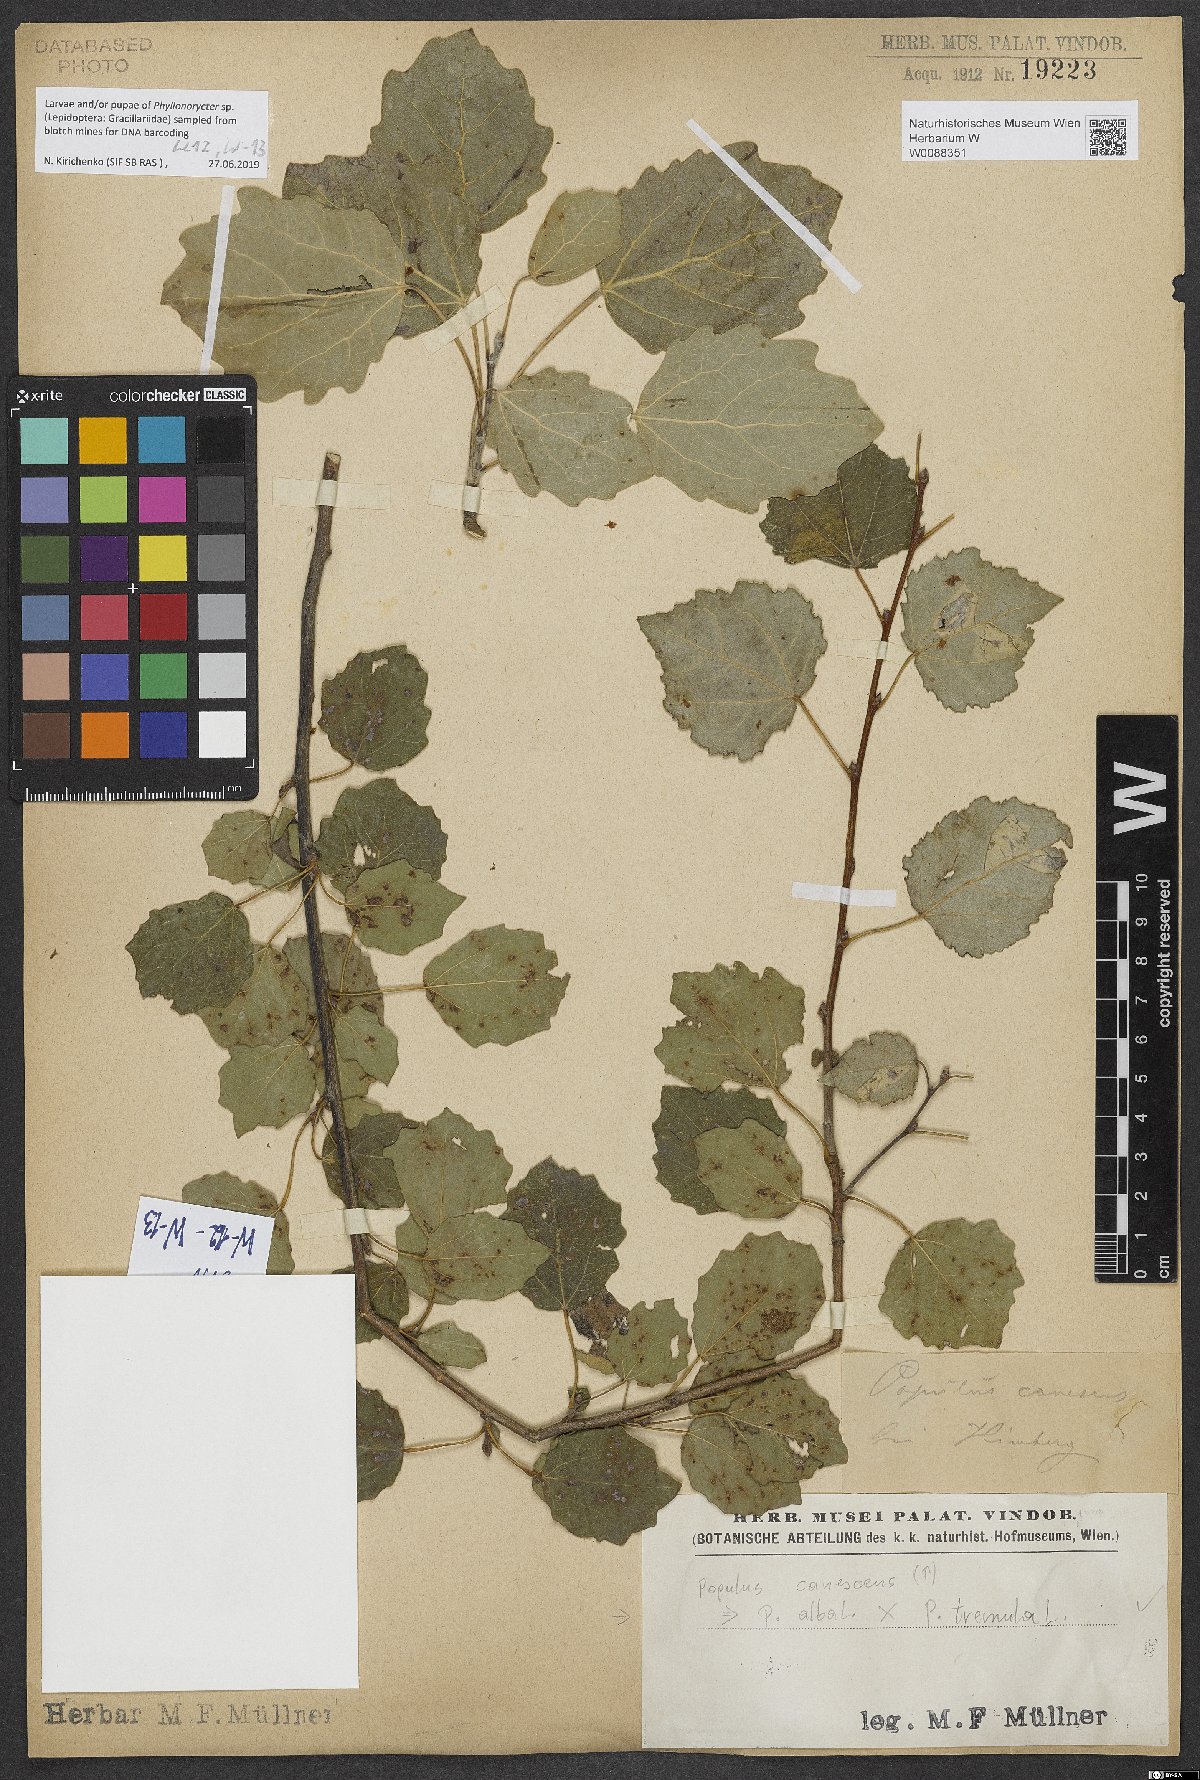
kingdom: Plantae
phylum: Tracheophyta
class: Magnoliopsida
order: Malpighiales
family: Salicaceae
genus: Populus
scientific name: Populus canescens
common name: Gray poplar
